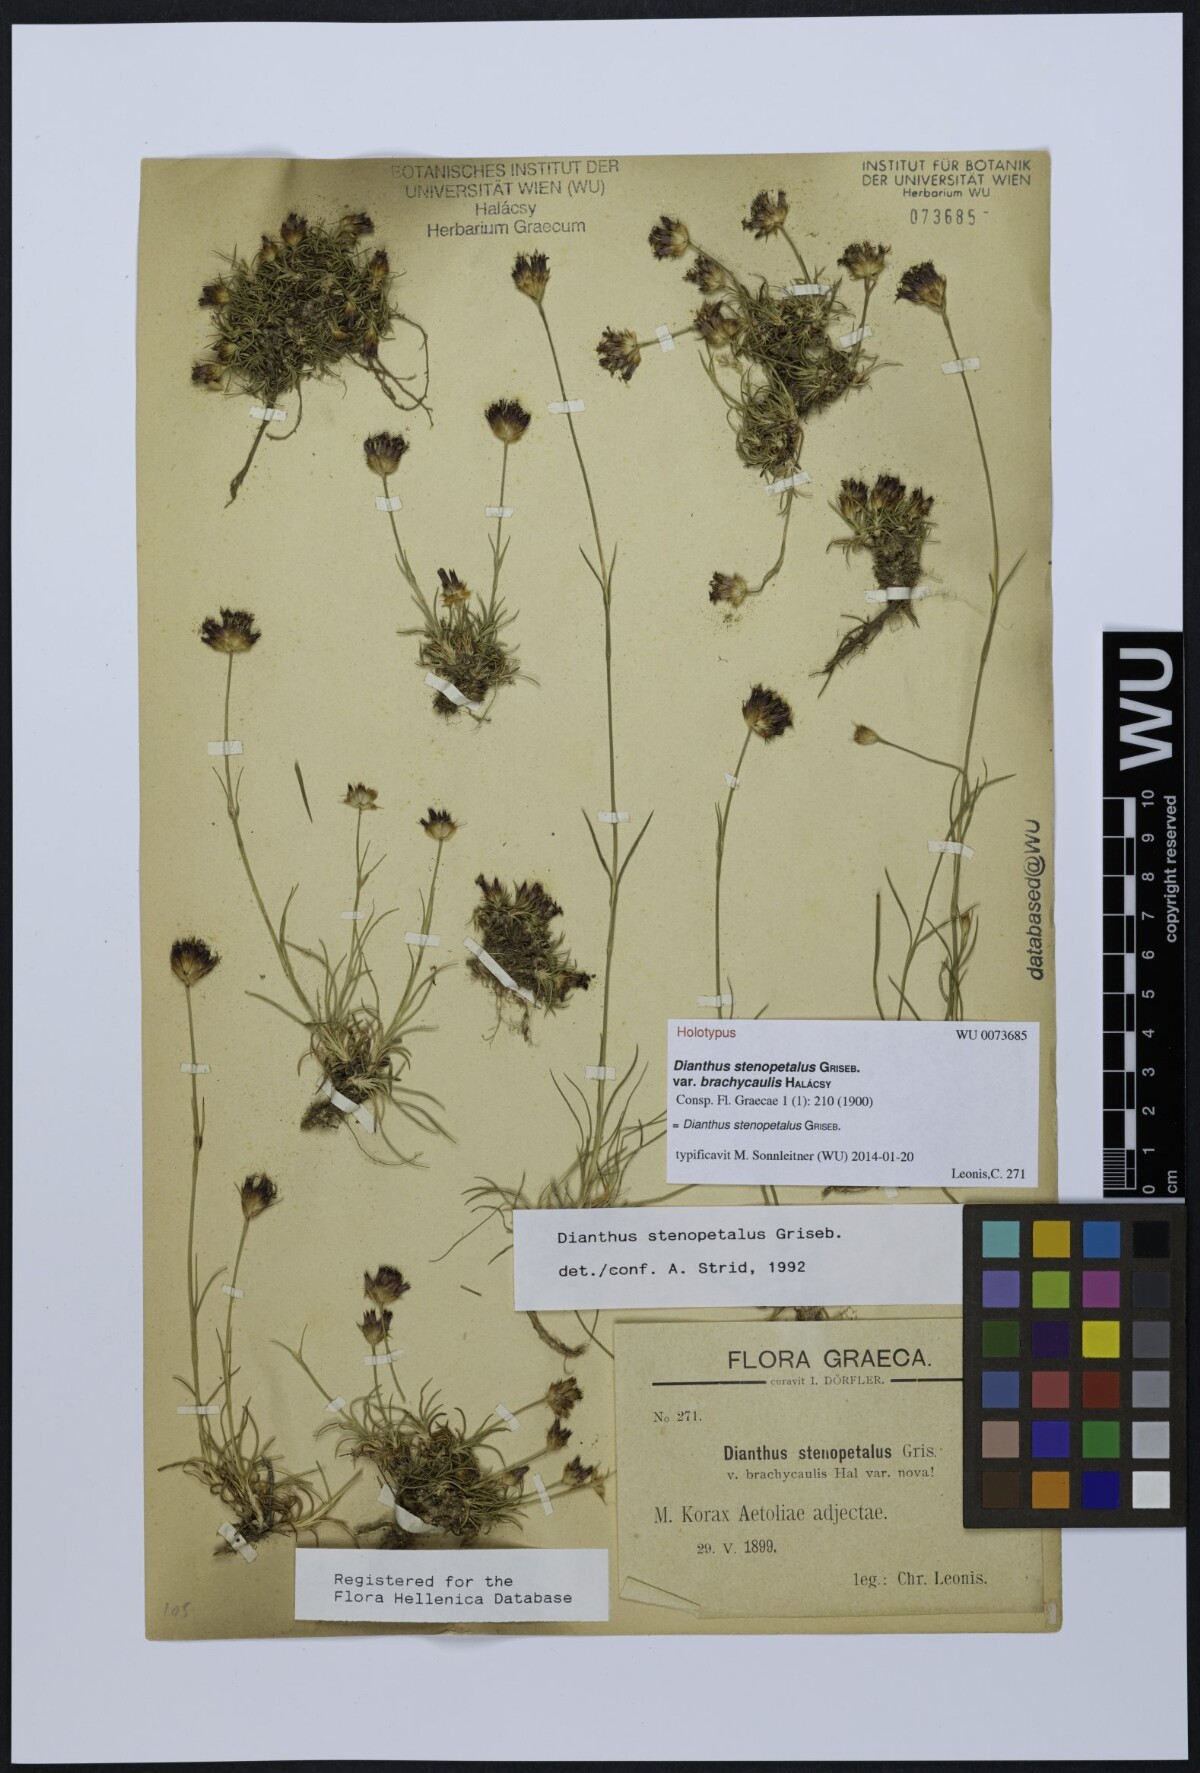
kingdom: Plantae
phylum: Tracheophyta
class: Magnoliopsida
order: Caryophyllales
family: Caryophyllaceae
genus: Dianthus
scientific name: Dianthus stenopetalus
